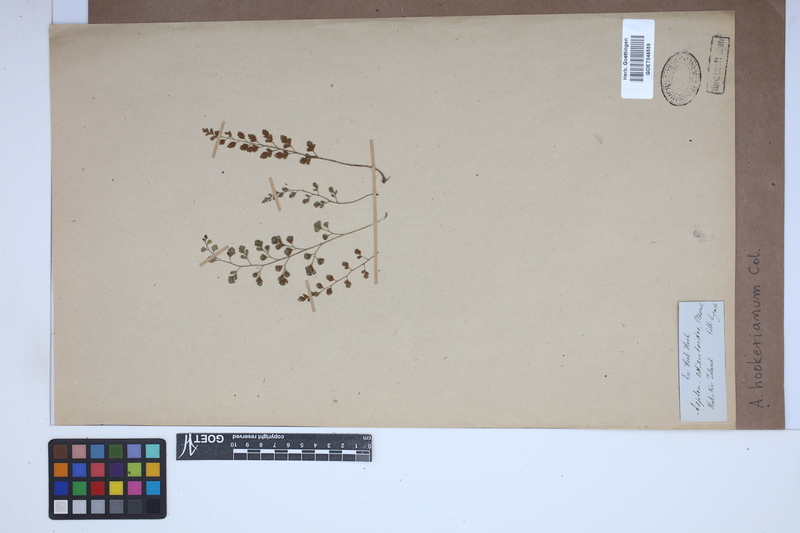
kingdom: Plantae
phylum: Tracheophyta
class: Polypodiopsida
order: Polypodiales
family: Aspleniaceae
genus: Asplenium
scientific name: Asplenium hookerianum
